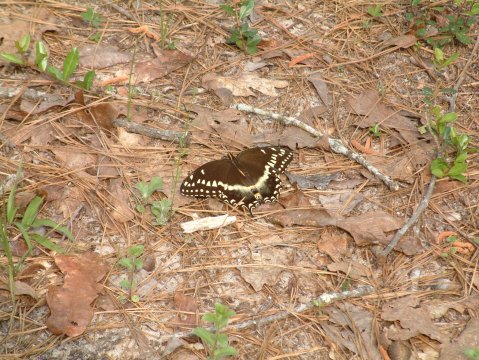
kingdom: Animalia
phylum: Arthropoda
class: Insecta
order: Lepidoptera
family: Papilionidae
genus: Pterourus
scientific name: Pterourus palamedes
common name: Palamedes Swallowtail
